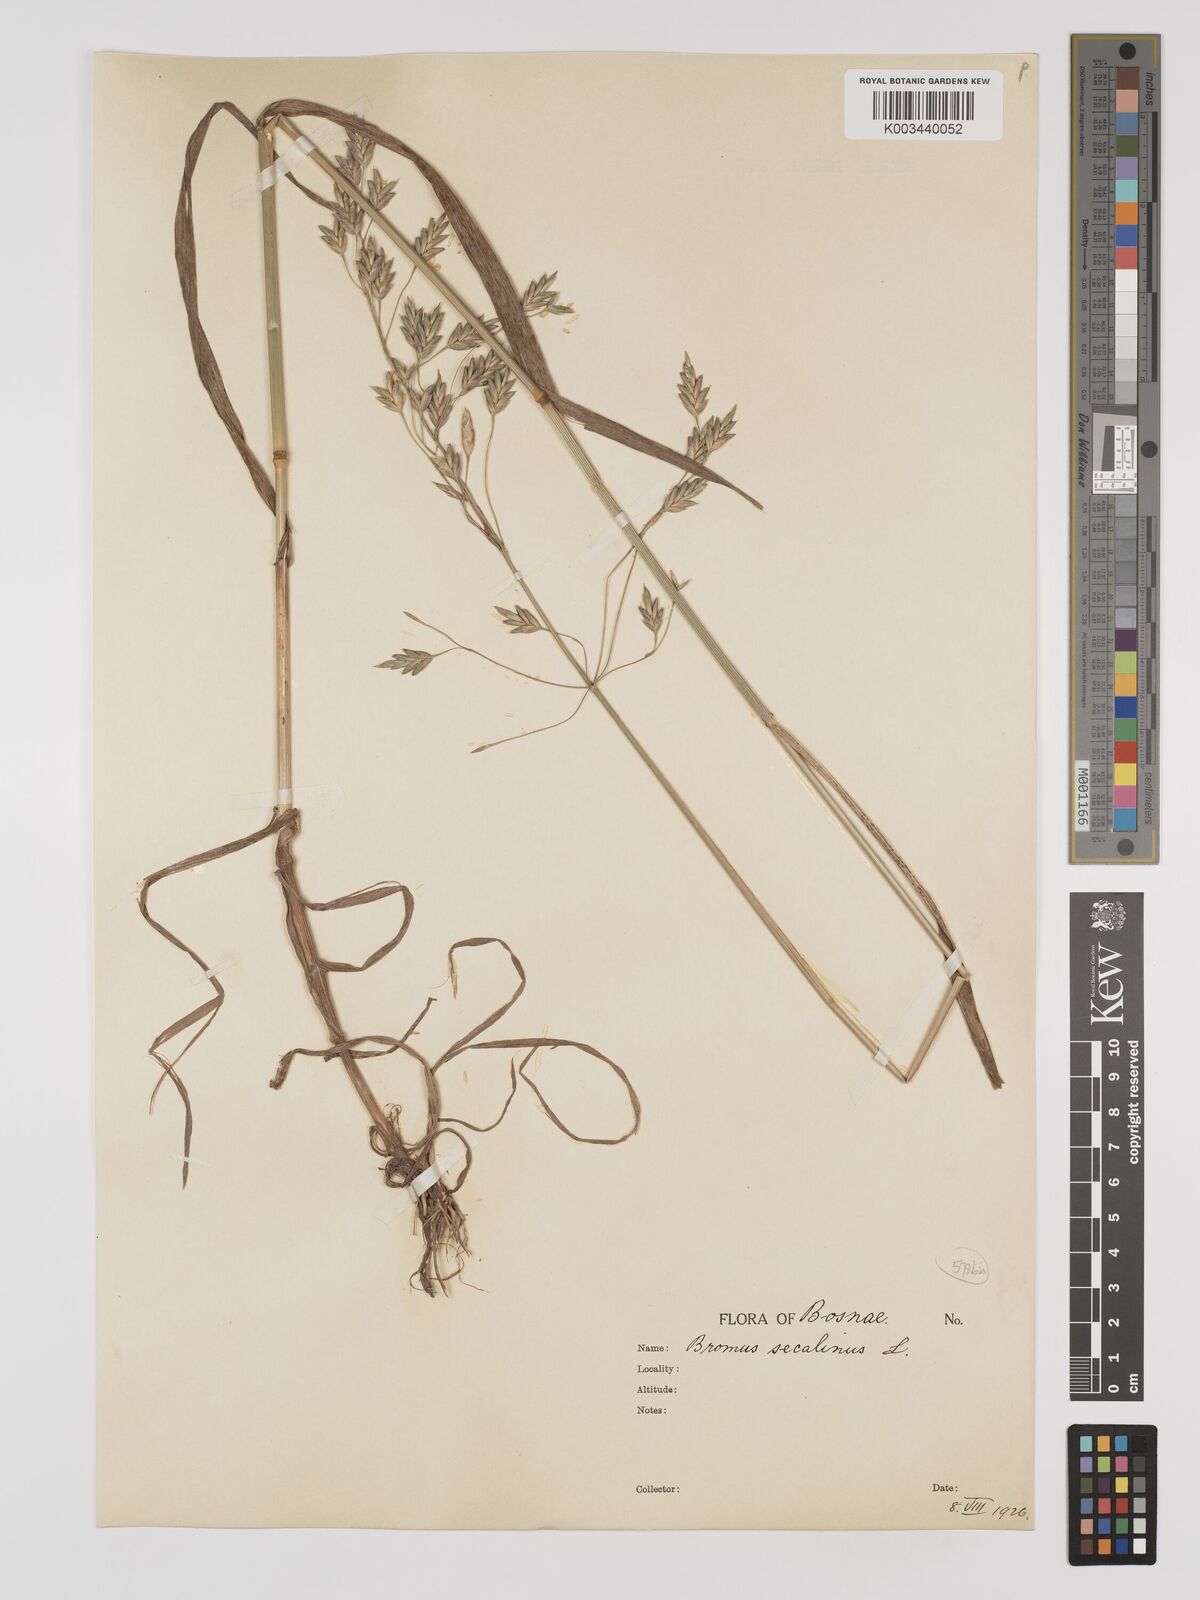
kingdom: Plantae
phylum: Tracheophyta
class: Liliopsida
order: Poales
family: Poaceae
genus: Bromus
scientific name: Bromus secalinus
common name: Rye brome
